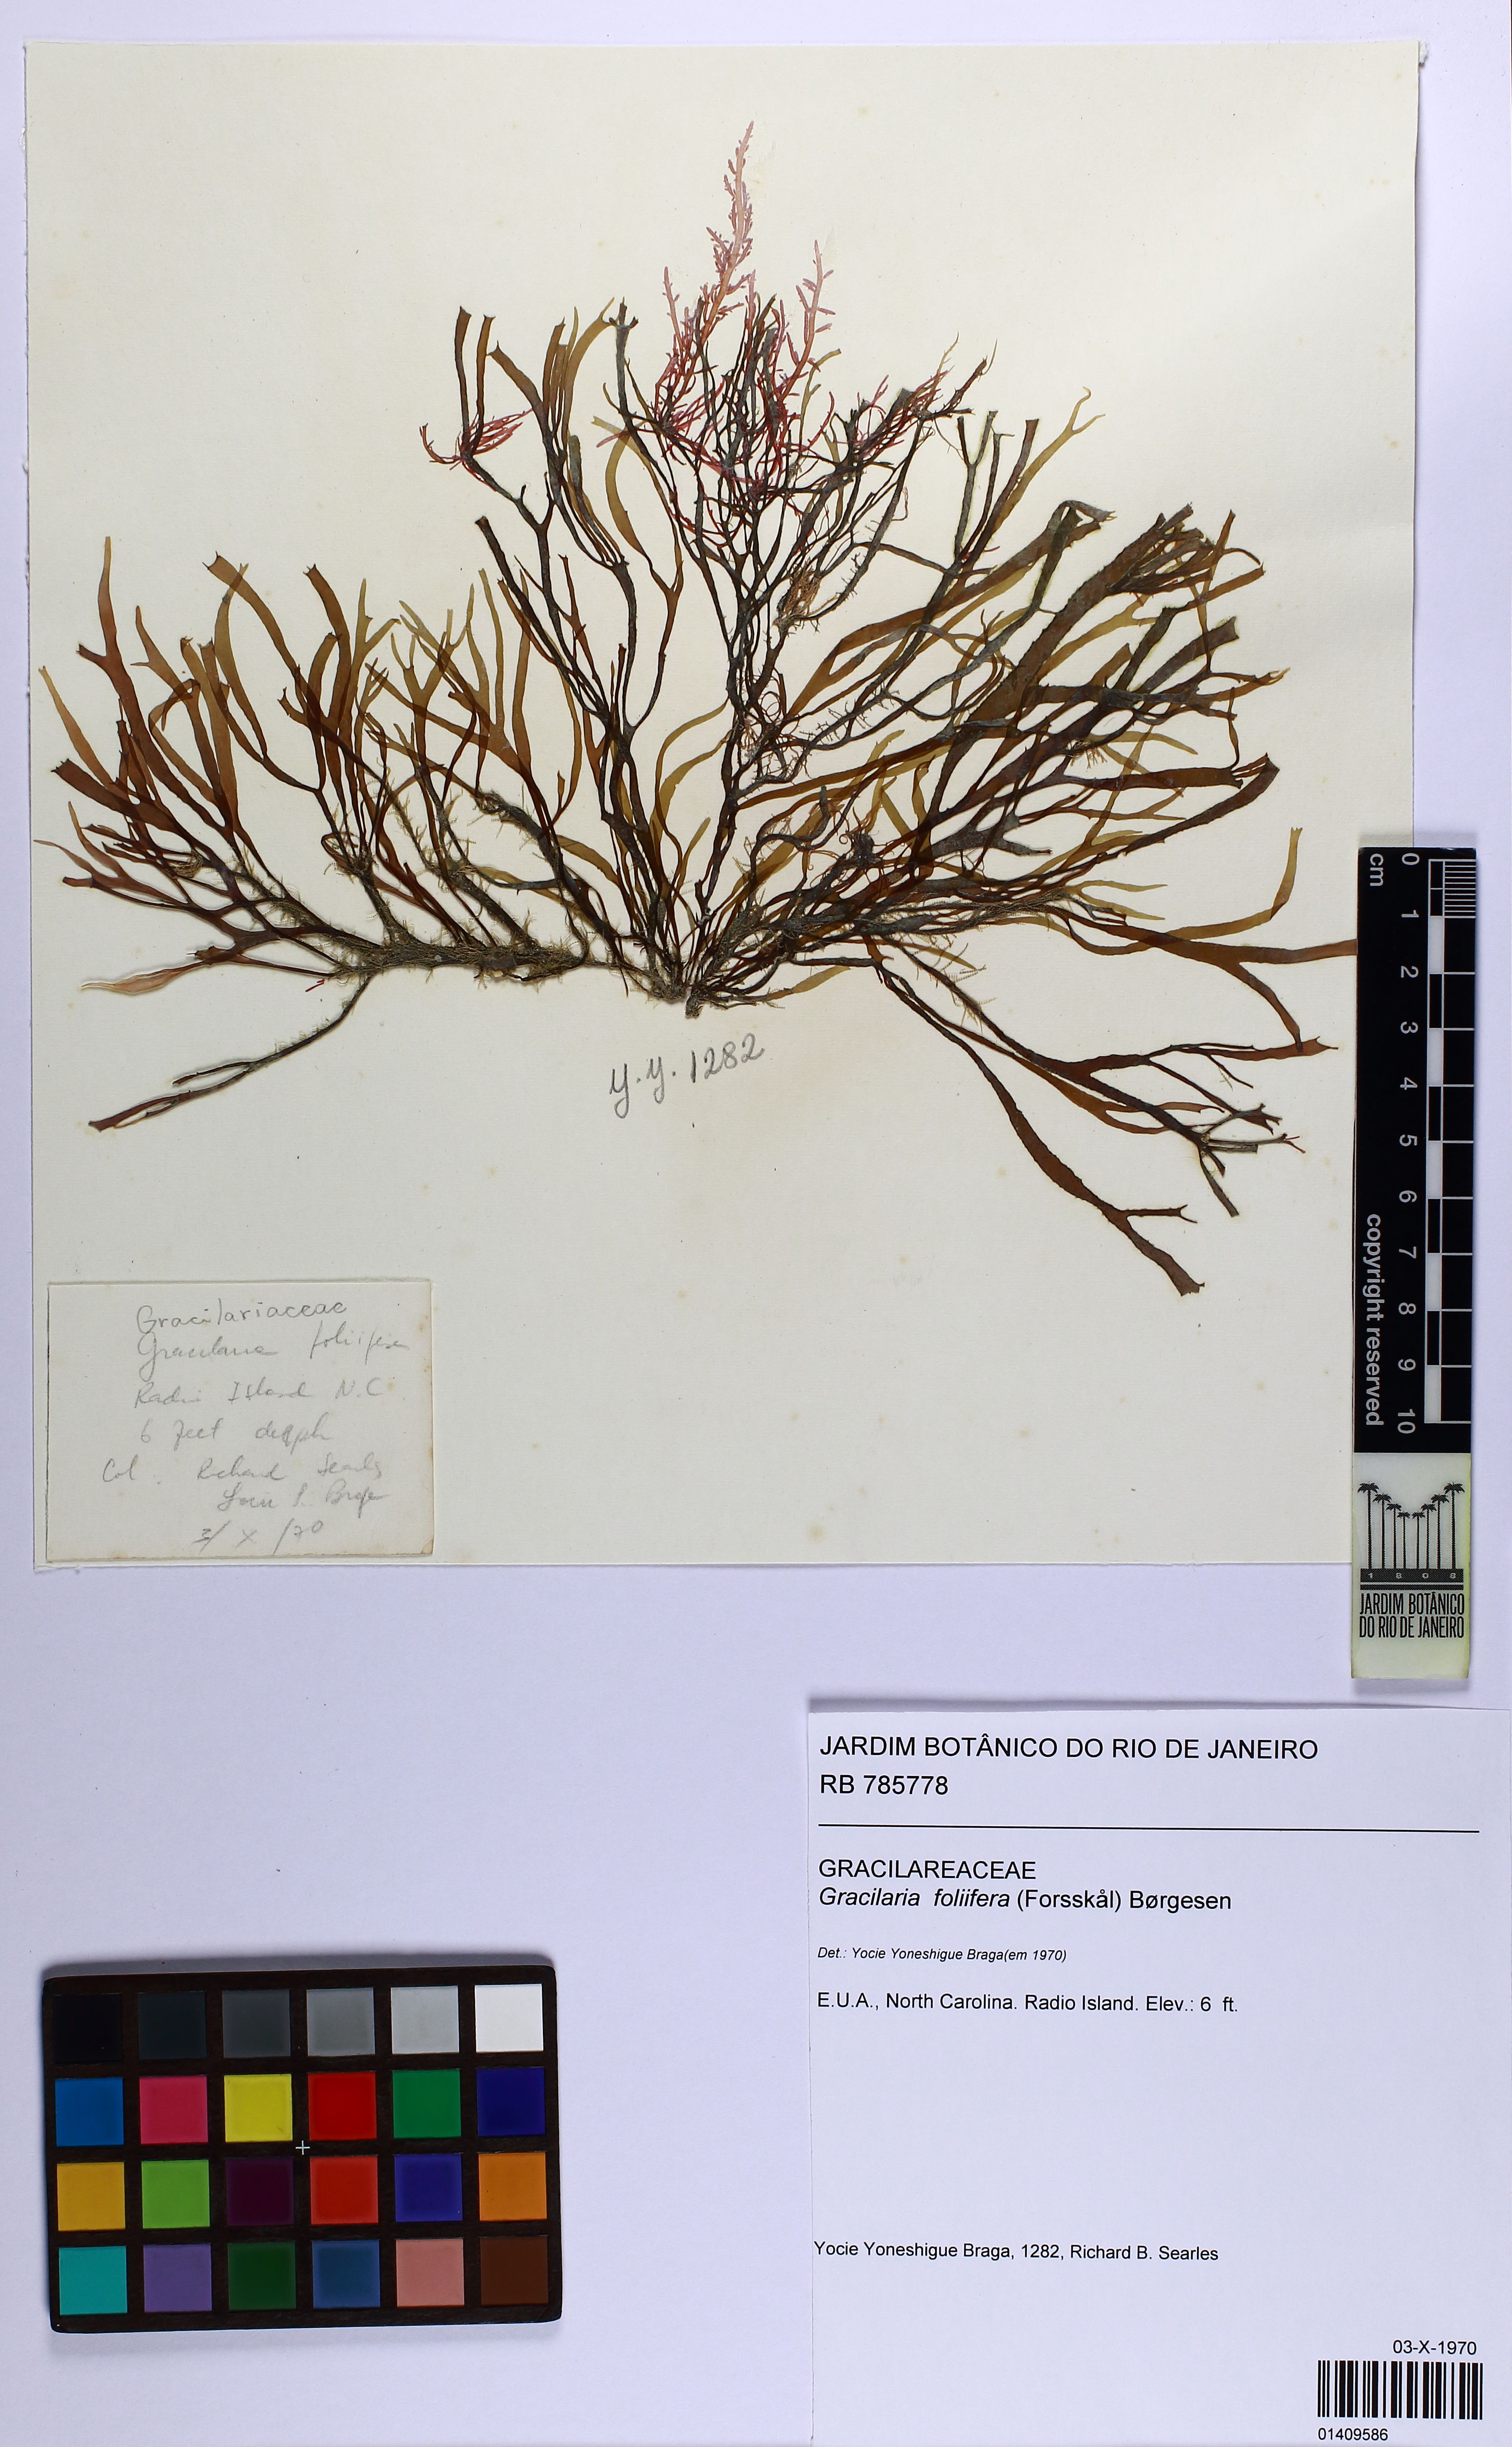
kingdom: Plantae
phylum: Rhodophyta
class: Florideophyceae
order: Gracilariales
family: Gracilariaceae
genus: Gracilaria
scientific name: Gracilaria foliifera
